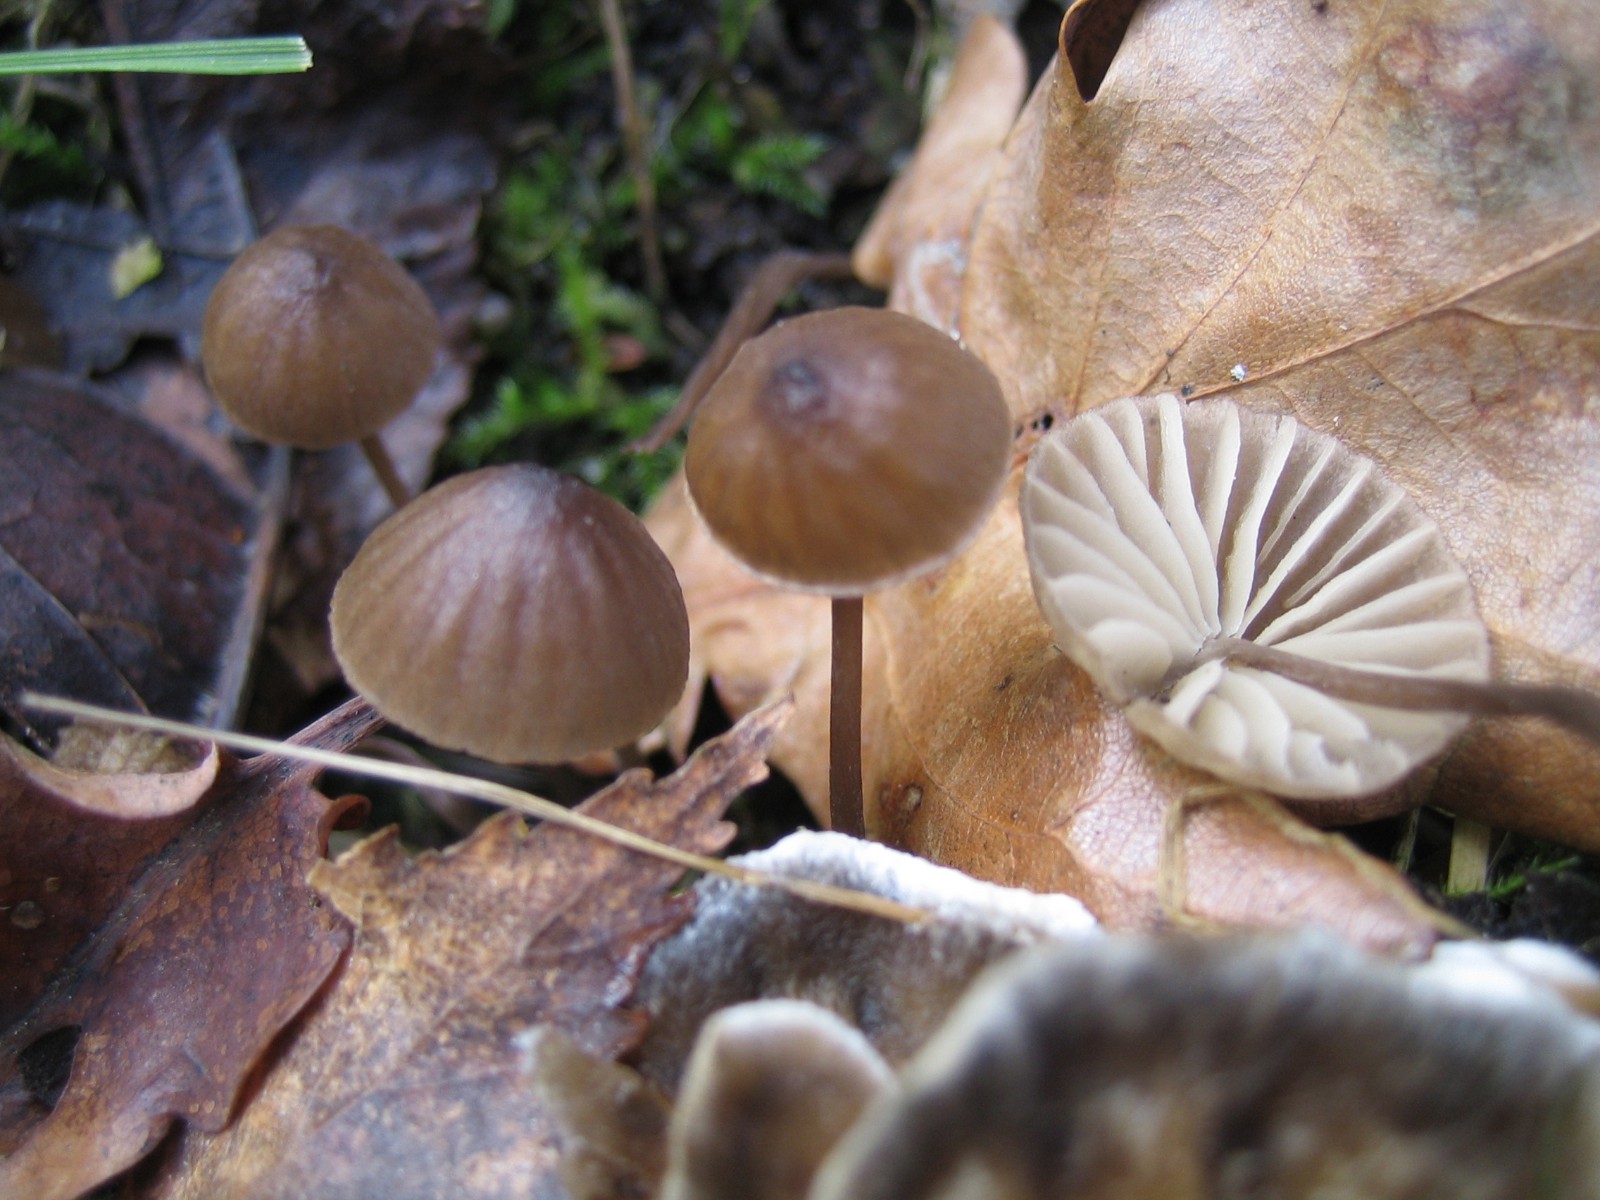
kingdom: Fungi
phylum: Basidiomycota
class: Agaricomycetes
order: Agaricales
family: Mycenaceae
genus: Mycena
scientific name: Mycena galopus
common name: hvidmælket huesvamp
